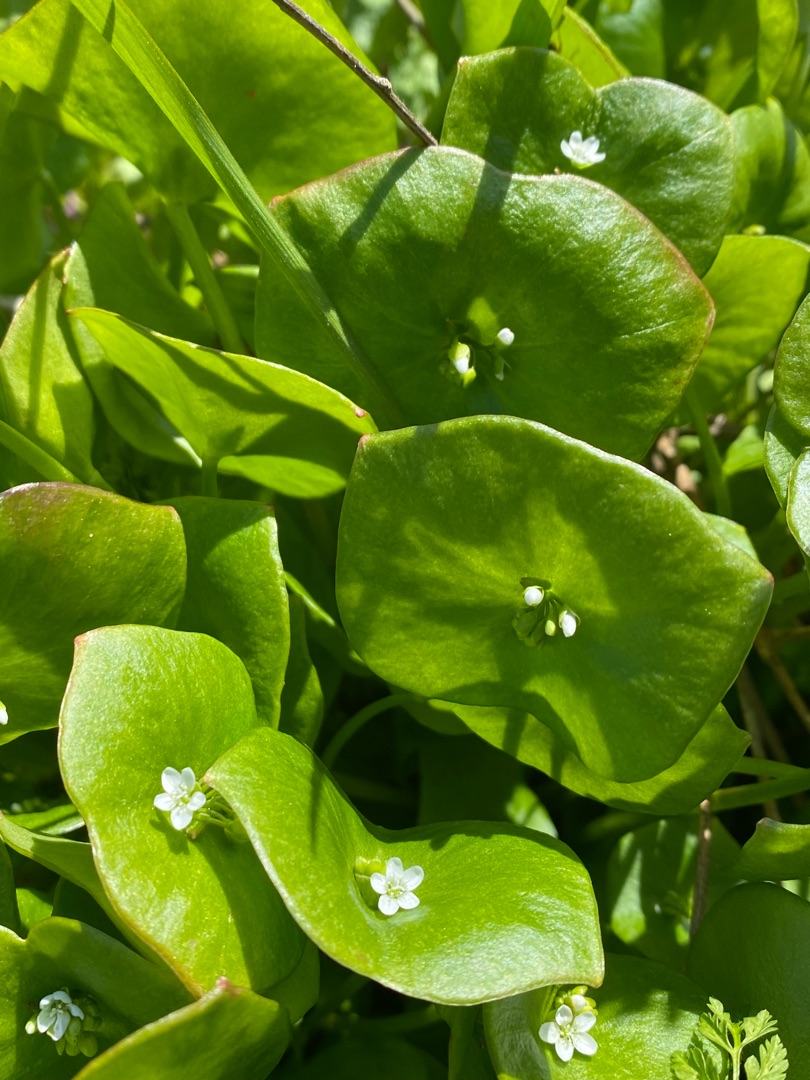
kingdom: Plantae
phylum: Tracheophyta
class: Magnoliopsida
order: Caryophyllales
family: Montiaceae
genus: Claytonia
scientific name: Claytonia perfoliata
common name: Spiselig vinterportulak
